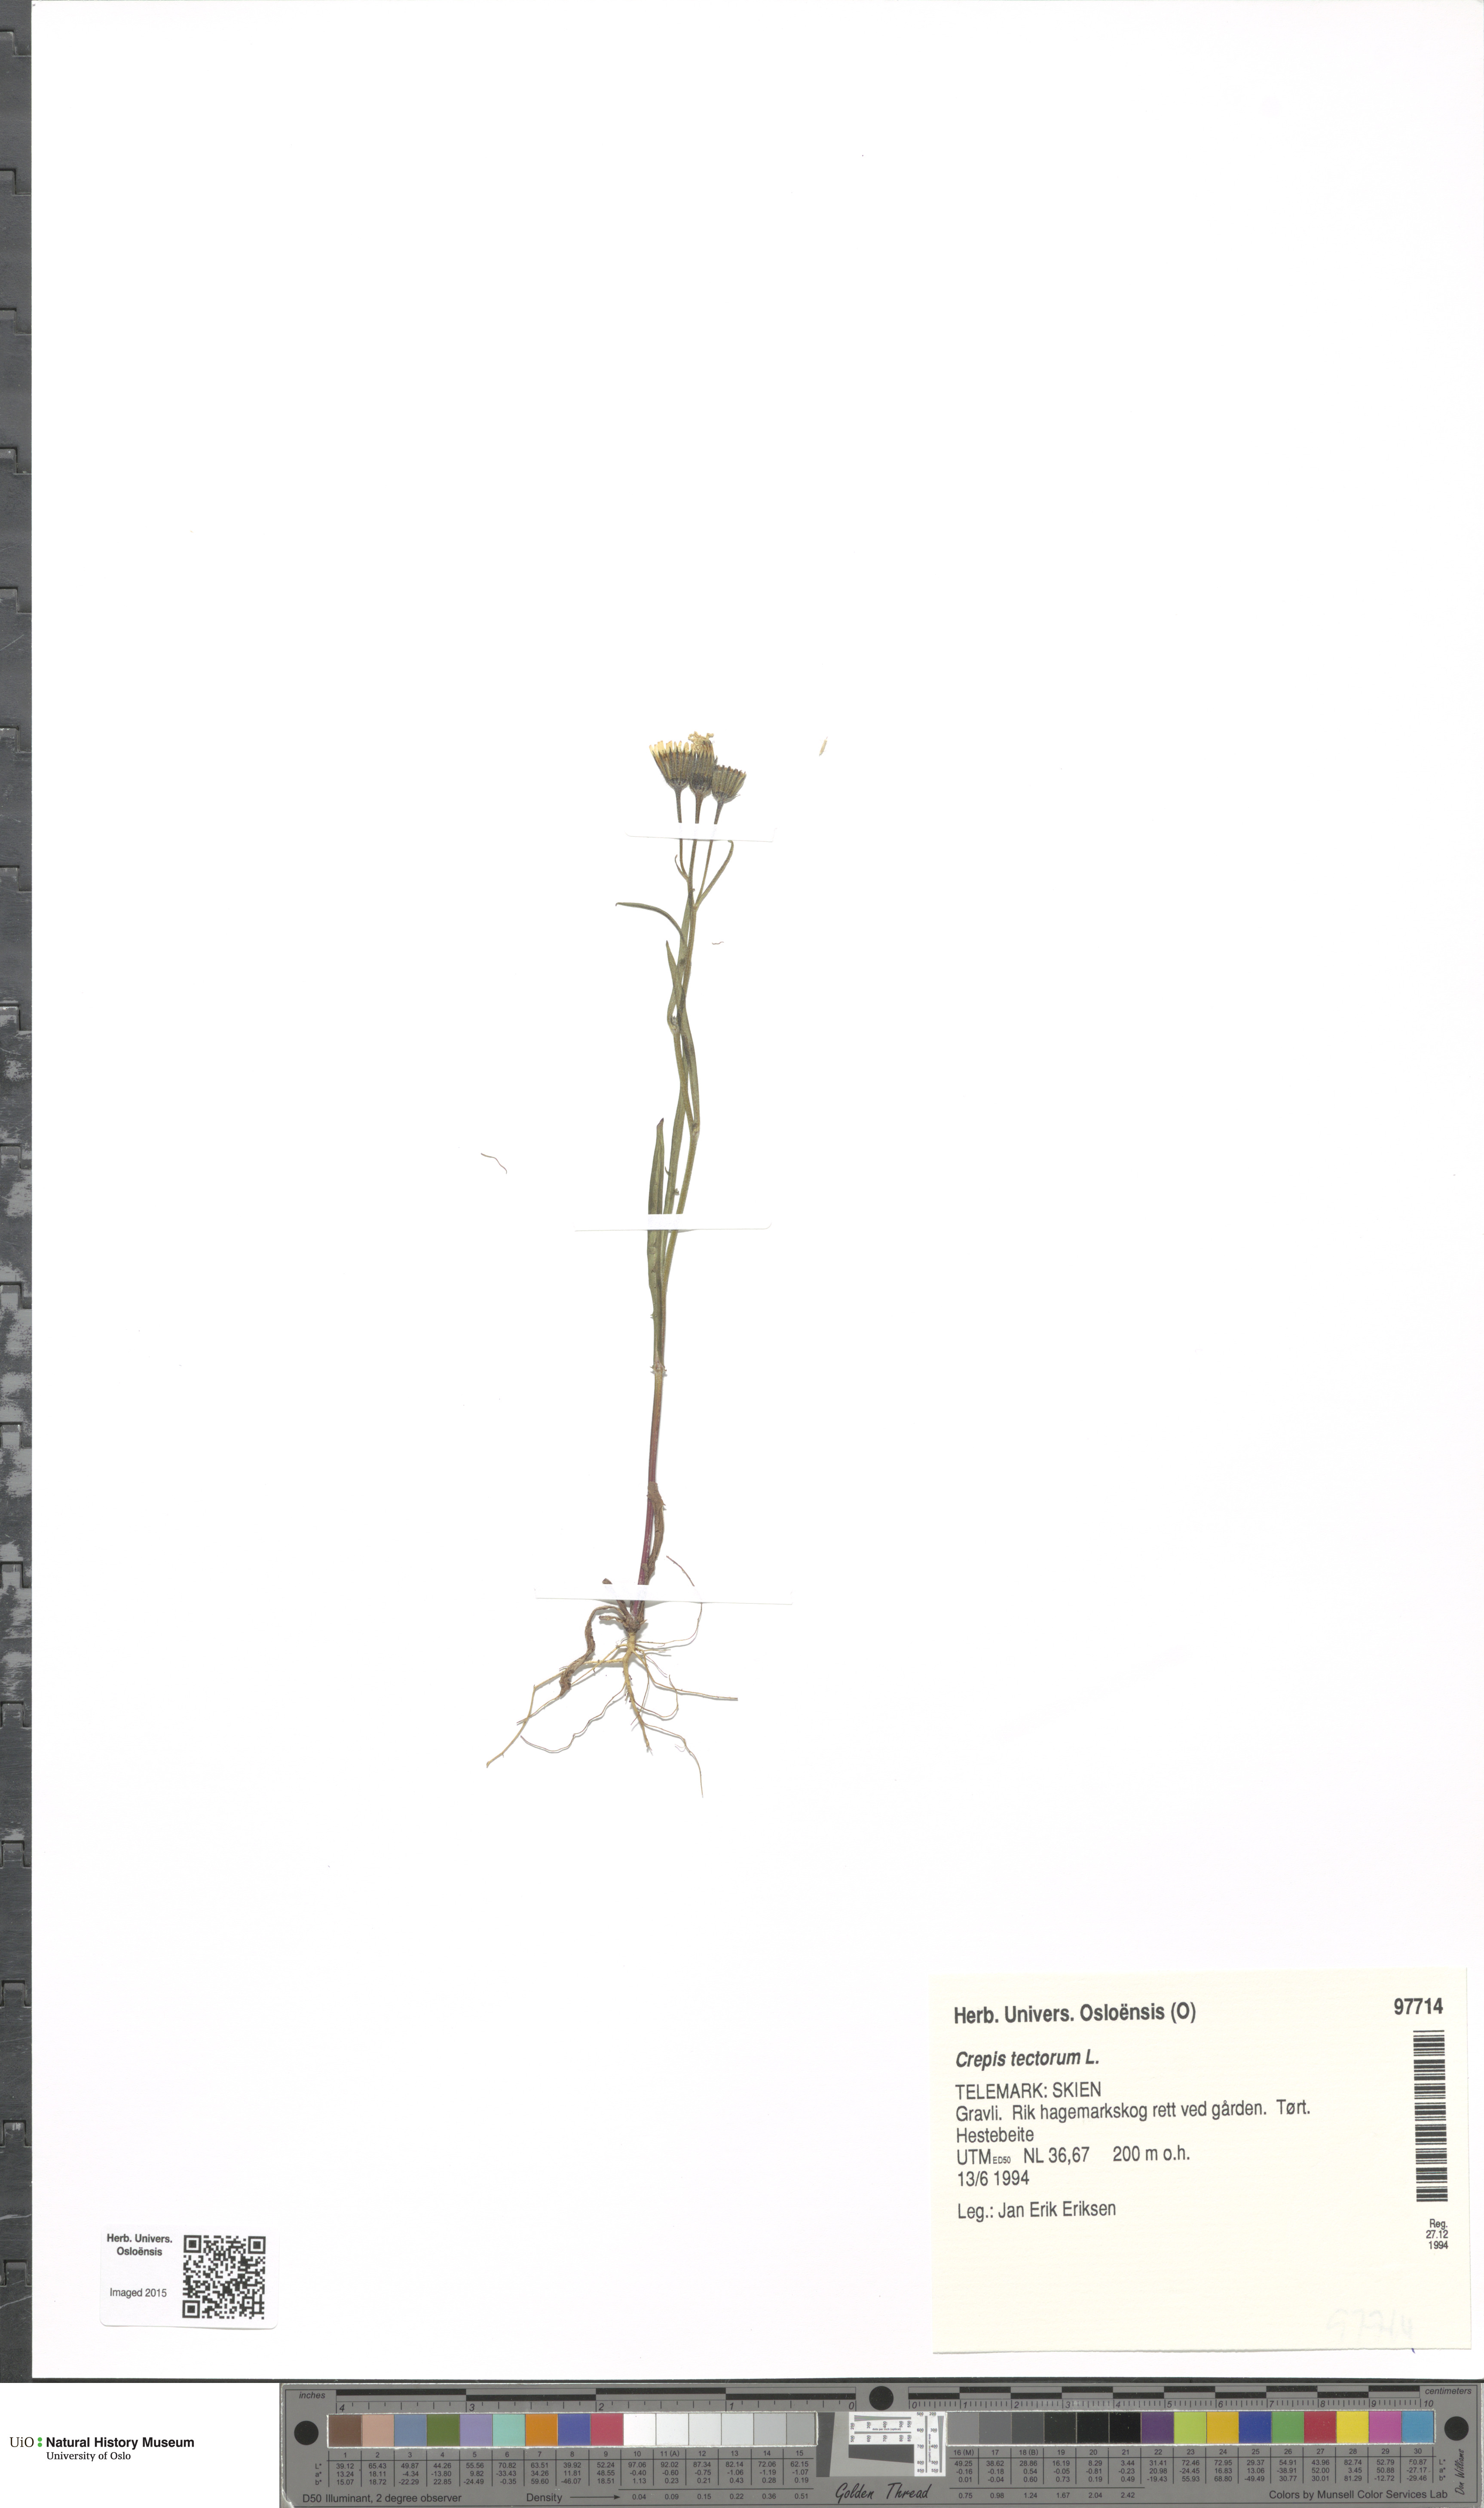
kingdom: Plantae
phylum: Tracheophyta
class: Magnoliopsida
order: Asterales
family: Asteraceae
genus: Crepis
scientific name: Crepis tectorum
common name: Narrow-leaved hawk's-beard
